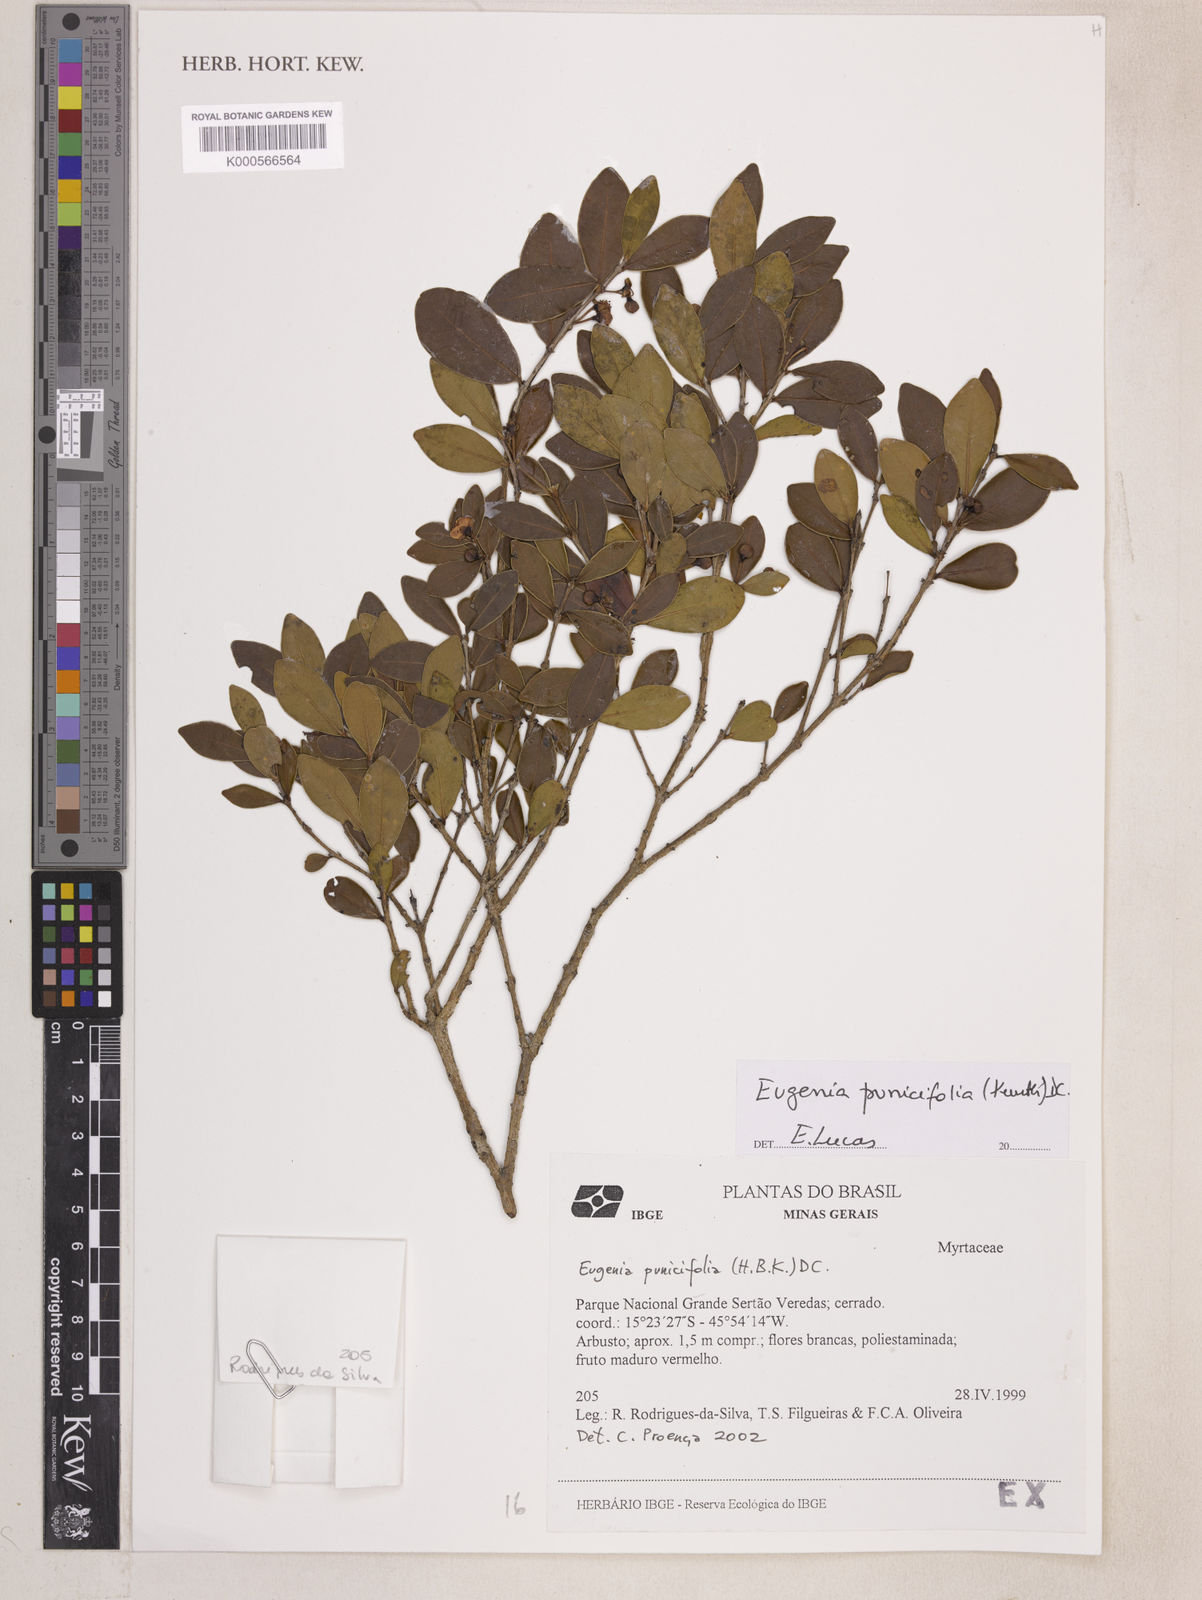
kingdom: Plantae
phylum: Tracheophyta
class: Magnoliopsida
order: Myrtales
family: Myrtaceae
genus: Eugenia
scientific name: Eugenia punicifolia
